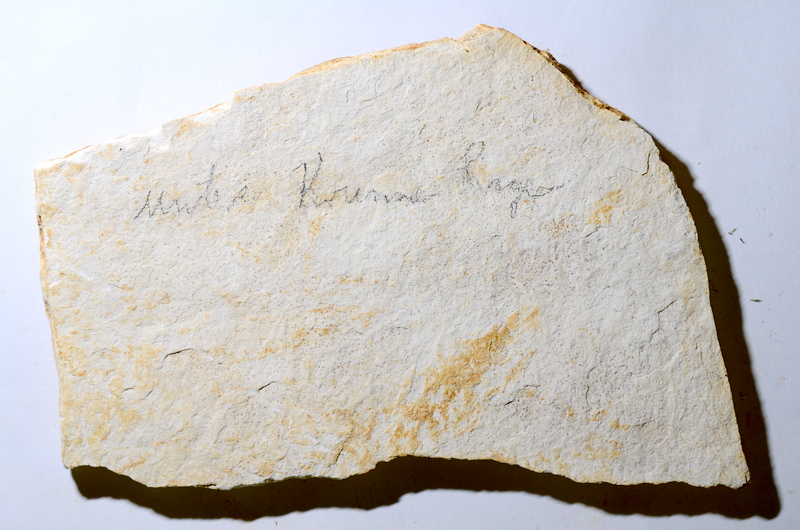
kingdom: Animalia
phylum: Chordata
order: Salmoniformes
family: Orthogonikleithridae
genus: Orthogonikleithrus
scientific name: Orthogonikleithrus hoelli
